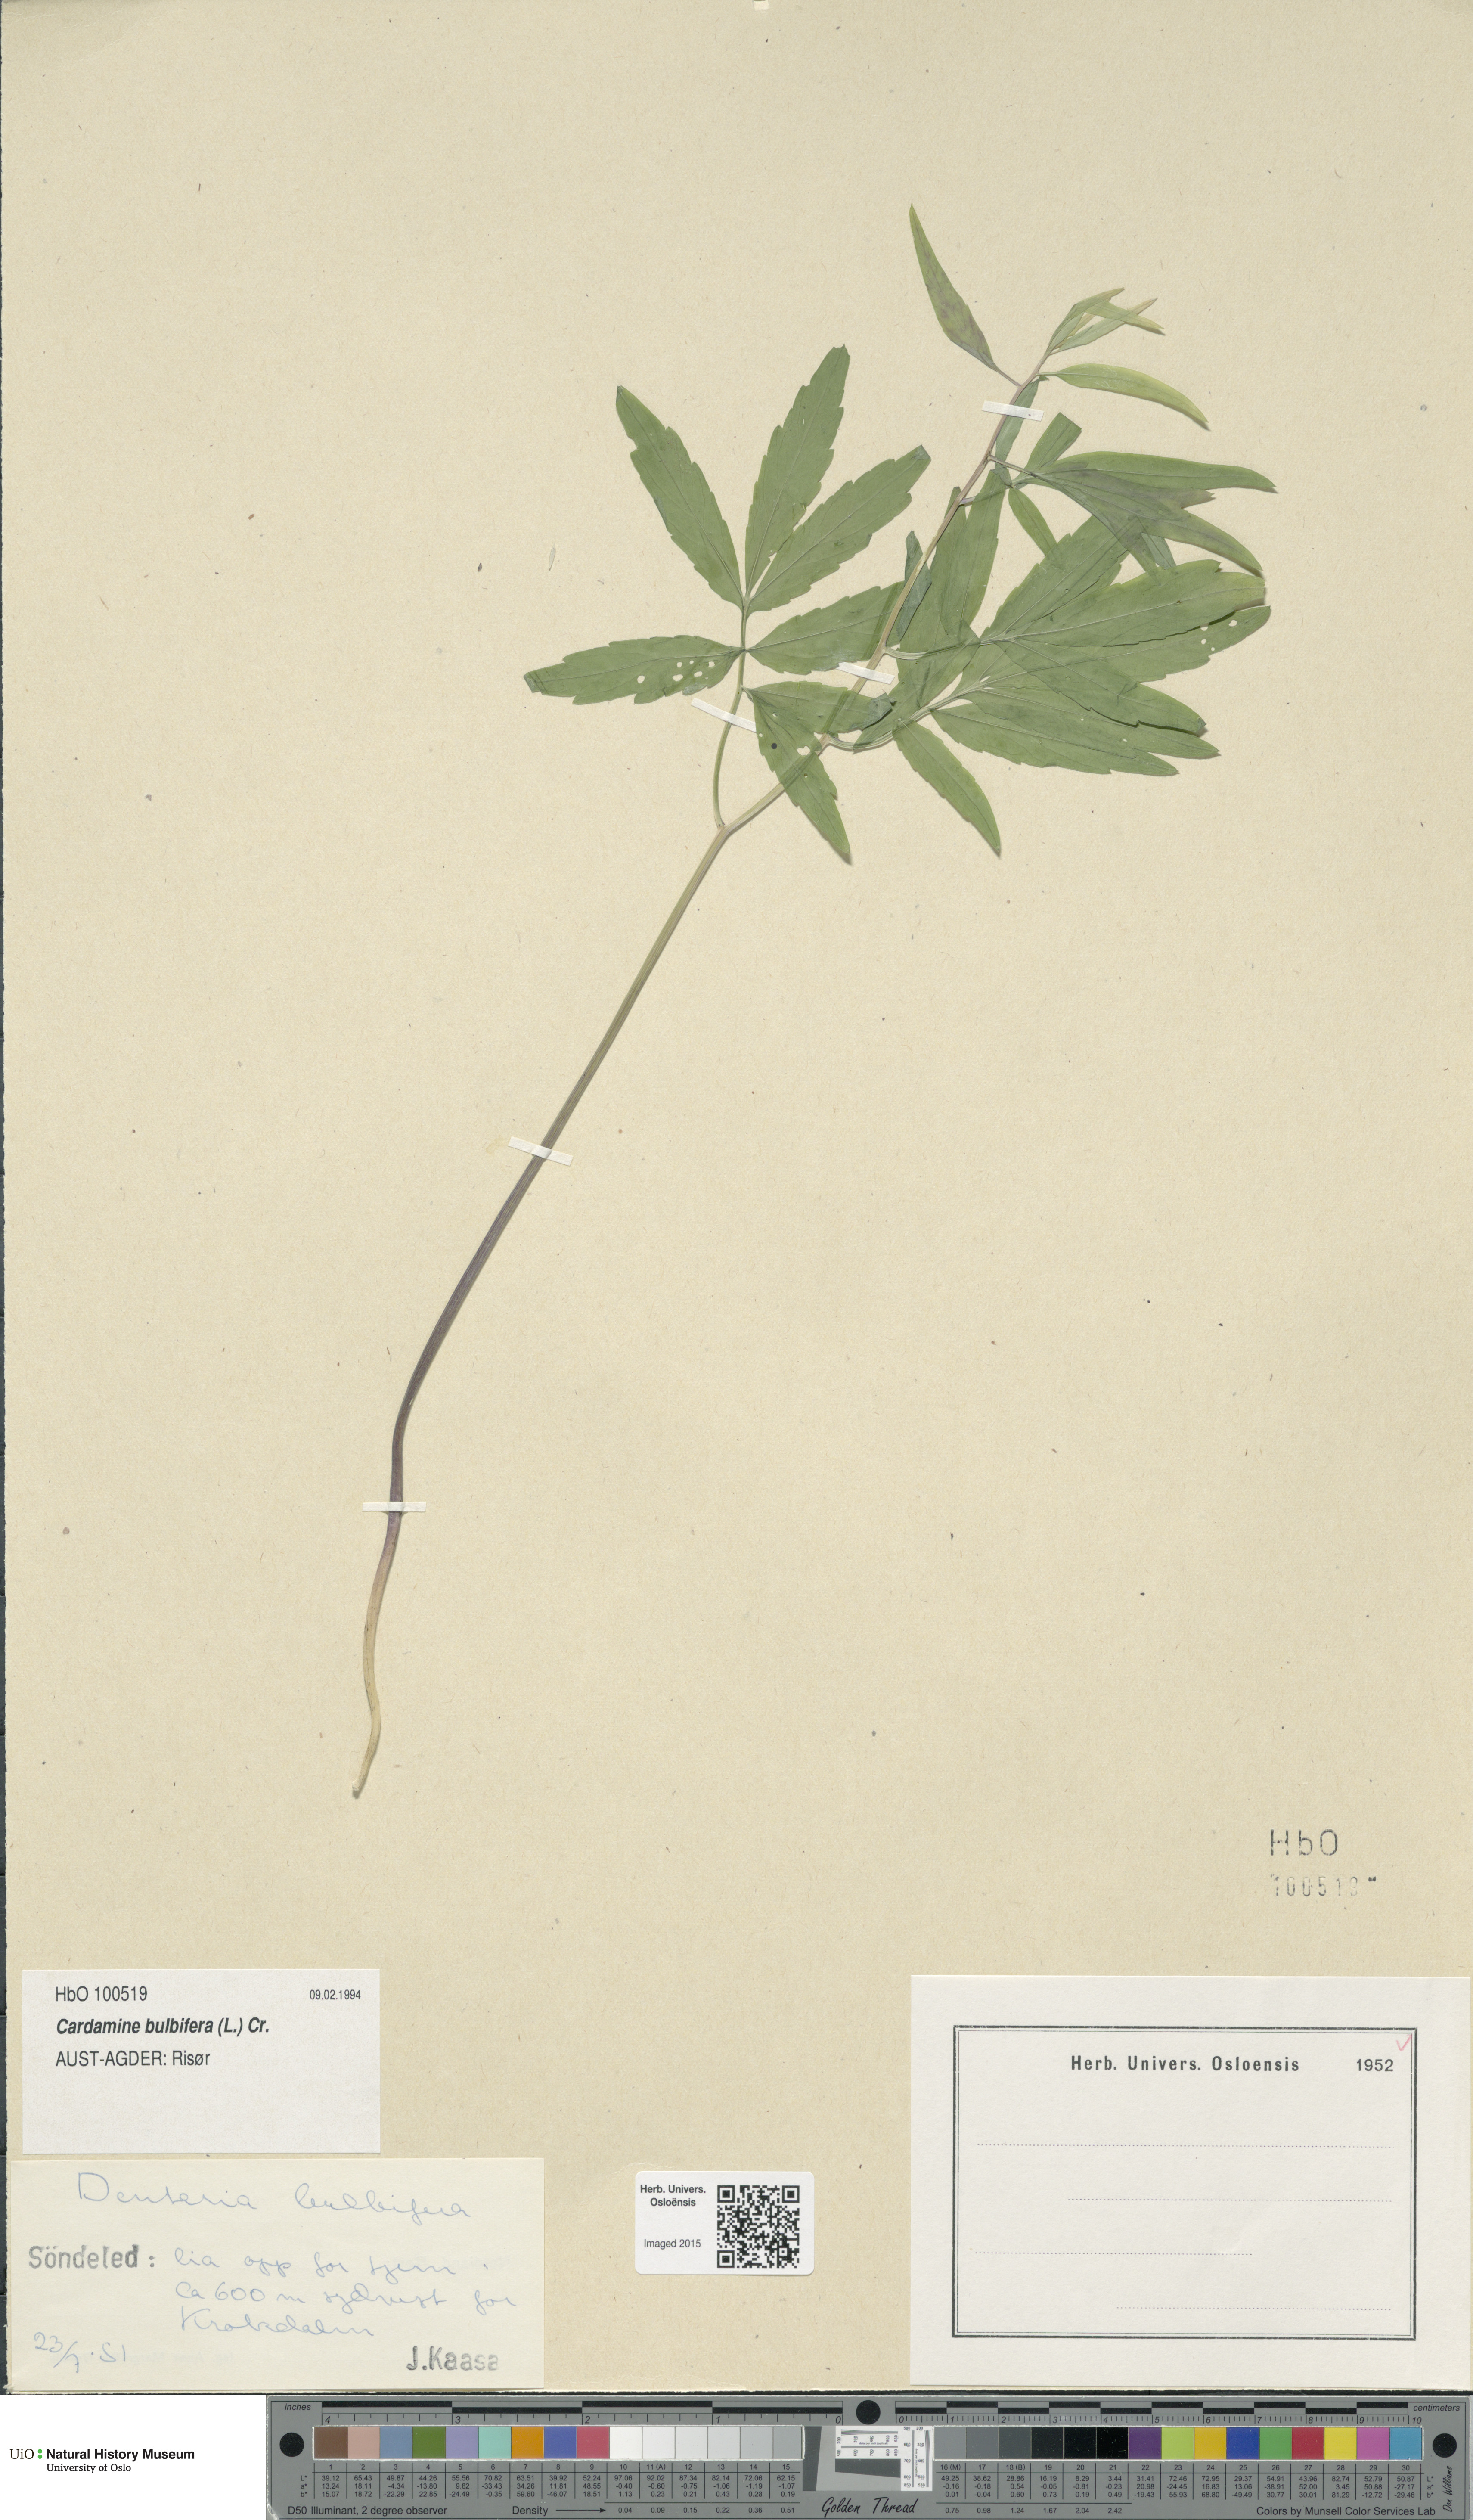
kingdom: Plantae
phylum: Tracheophyta
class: Magnoliopsida
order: Brassicales
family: Brassicaceae
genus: Cardamine
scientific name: Cardamine bulbifera
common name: Coralroot bittercress
